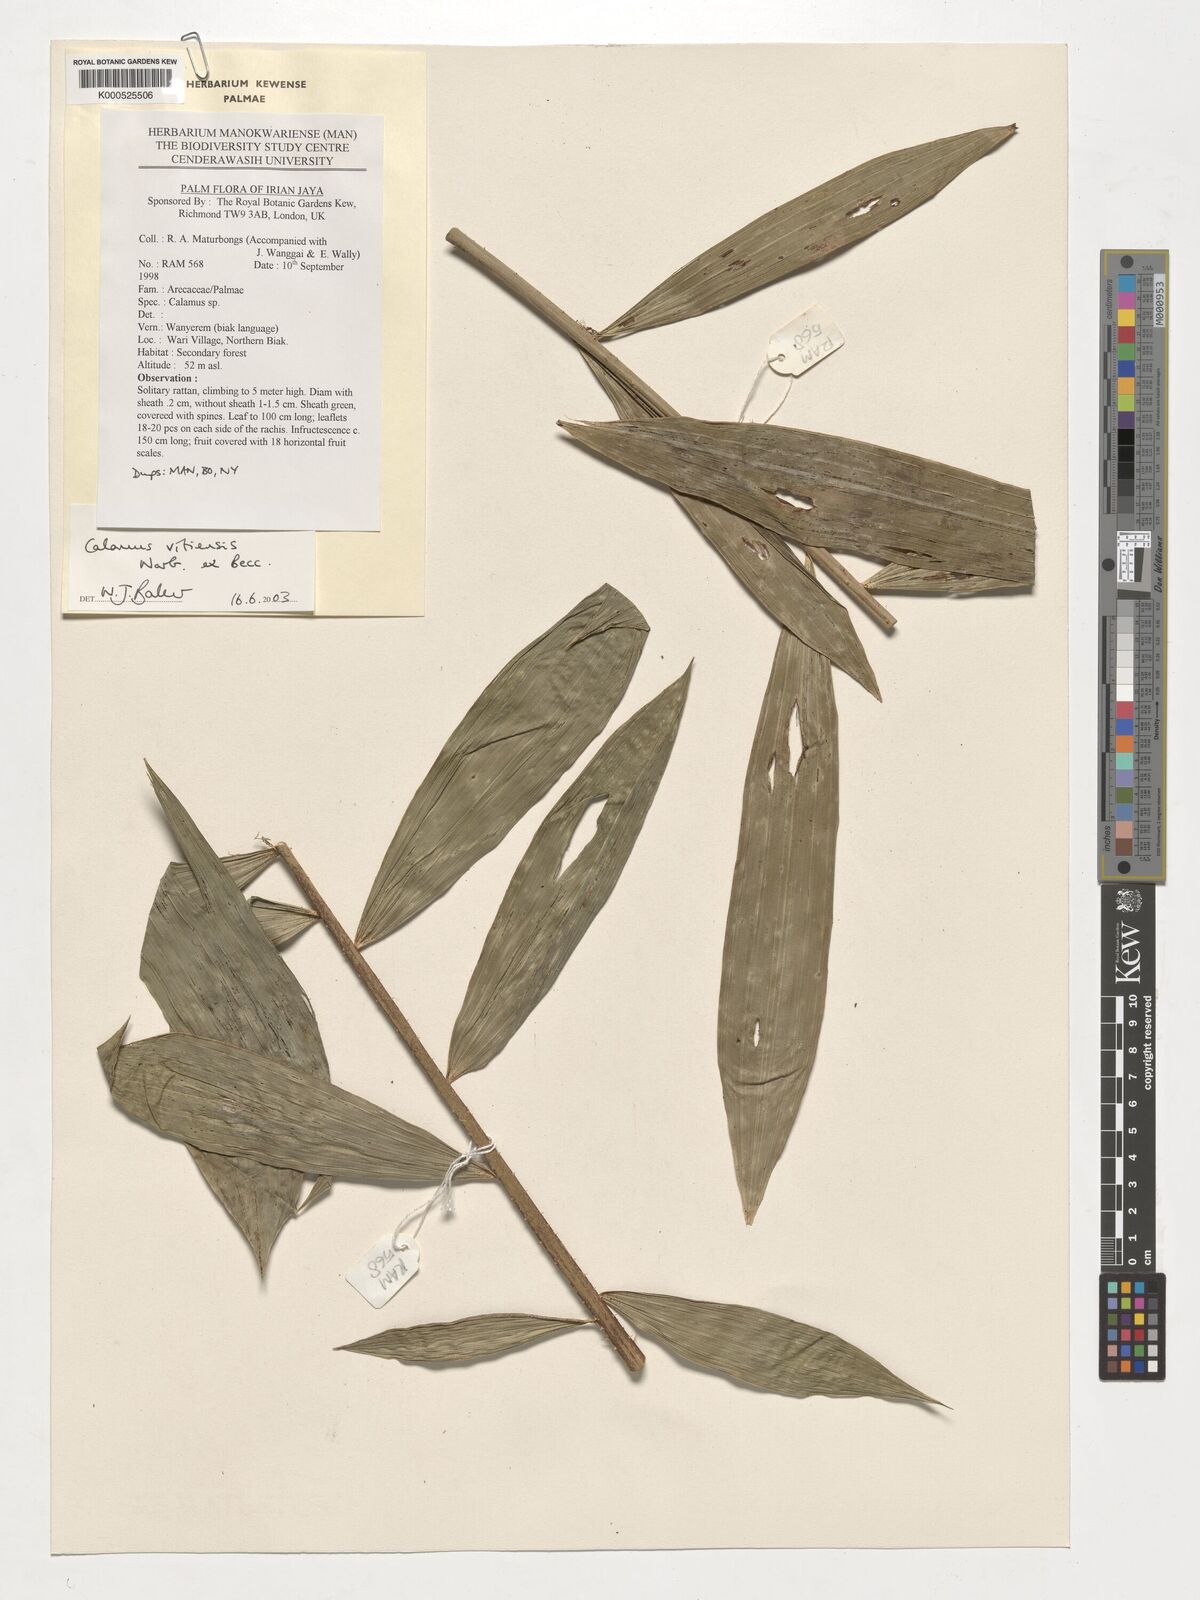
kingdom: Plantae
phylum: Tracheophyta
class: Liliopsida
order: Arecales
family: Arecaceae
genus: Calamus
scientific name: Calamus vitiensis
